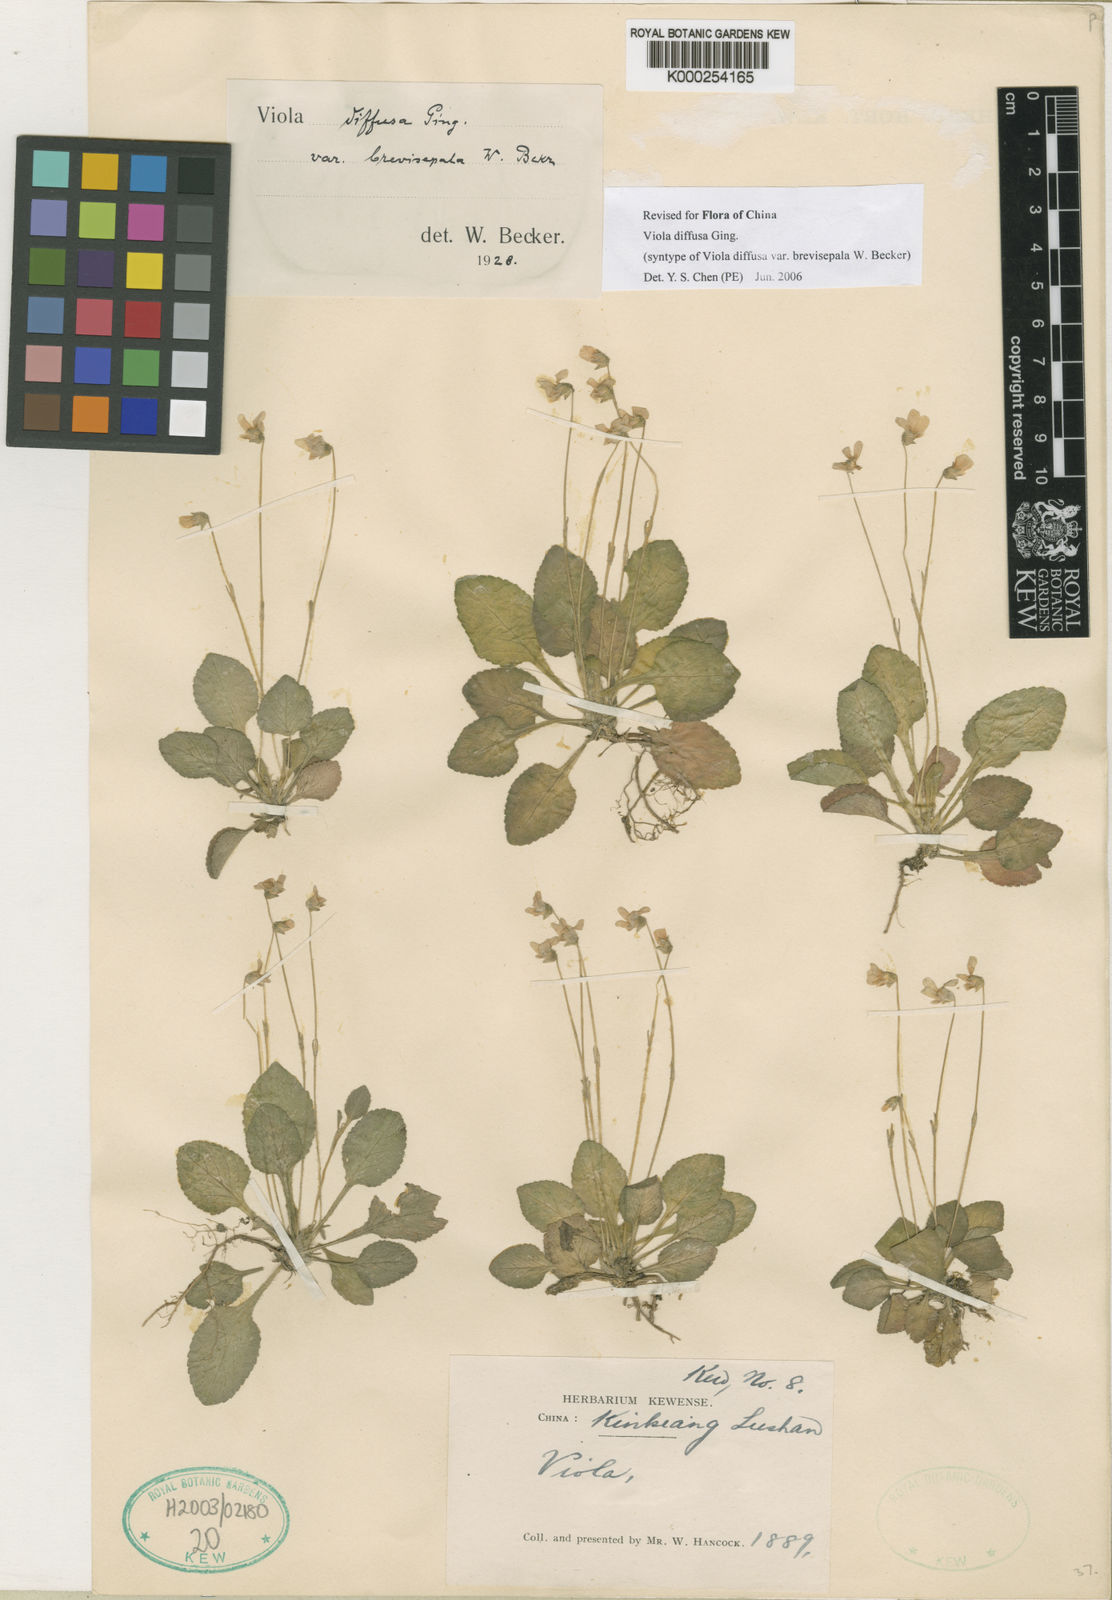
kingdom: Plantae
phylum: Tracheophyta
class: Magnoliopsida
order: Malpighiales
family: Violaceae
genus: Viola
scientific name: Viola diffusa
